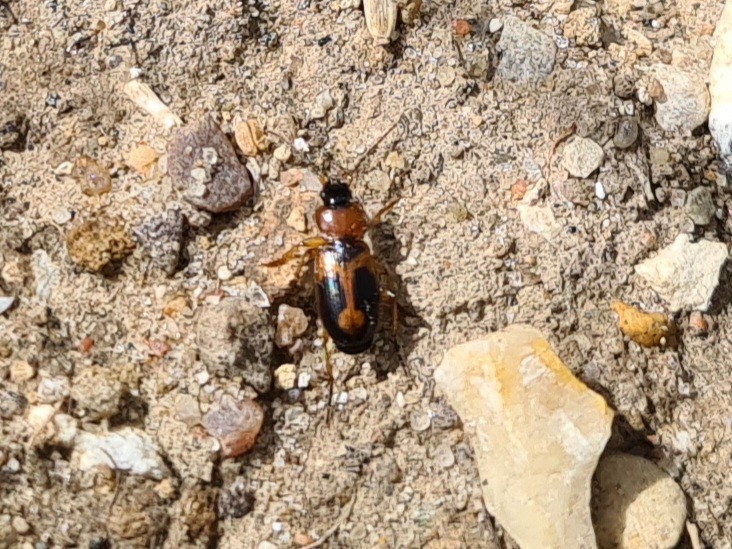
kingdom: Animalia
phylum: Arthropoda
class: Insecta
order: Coleoptera
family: Carabidae
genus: Badister
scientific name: Badister bullatus
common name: Almindelig sumpløber
